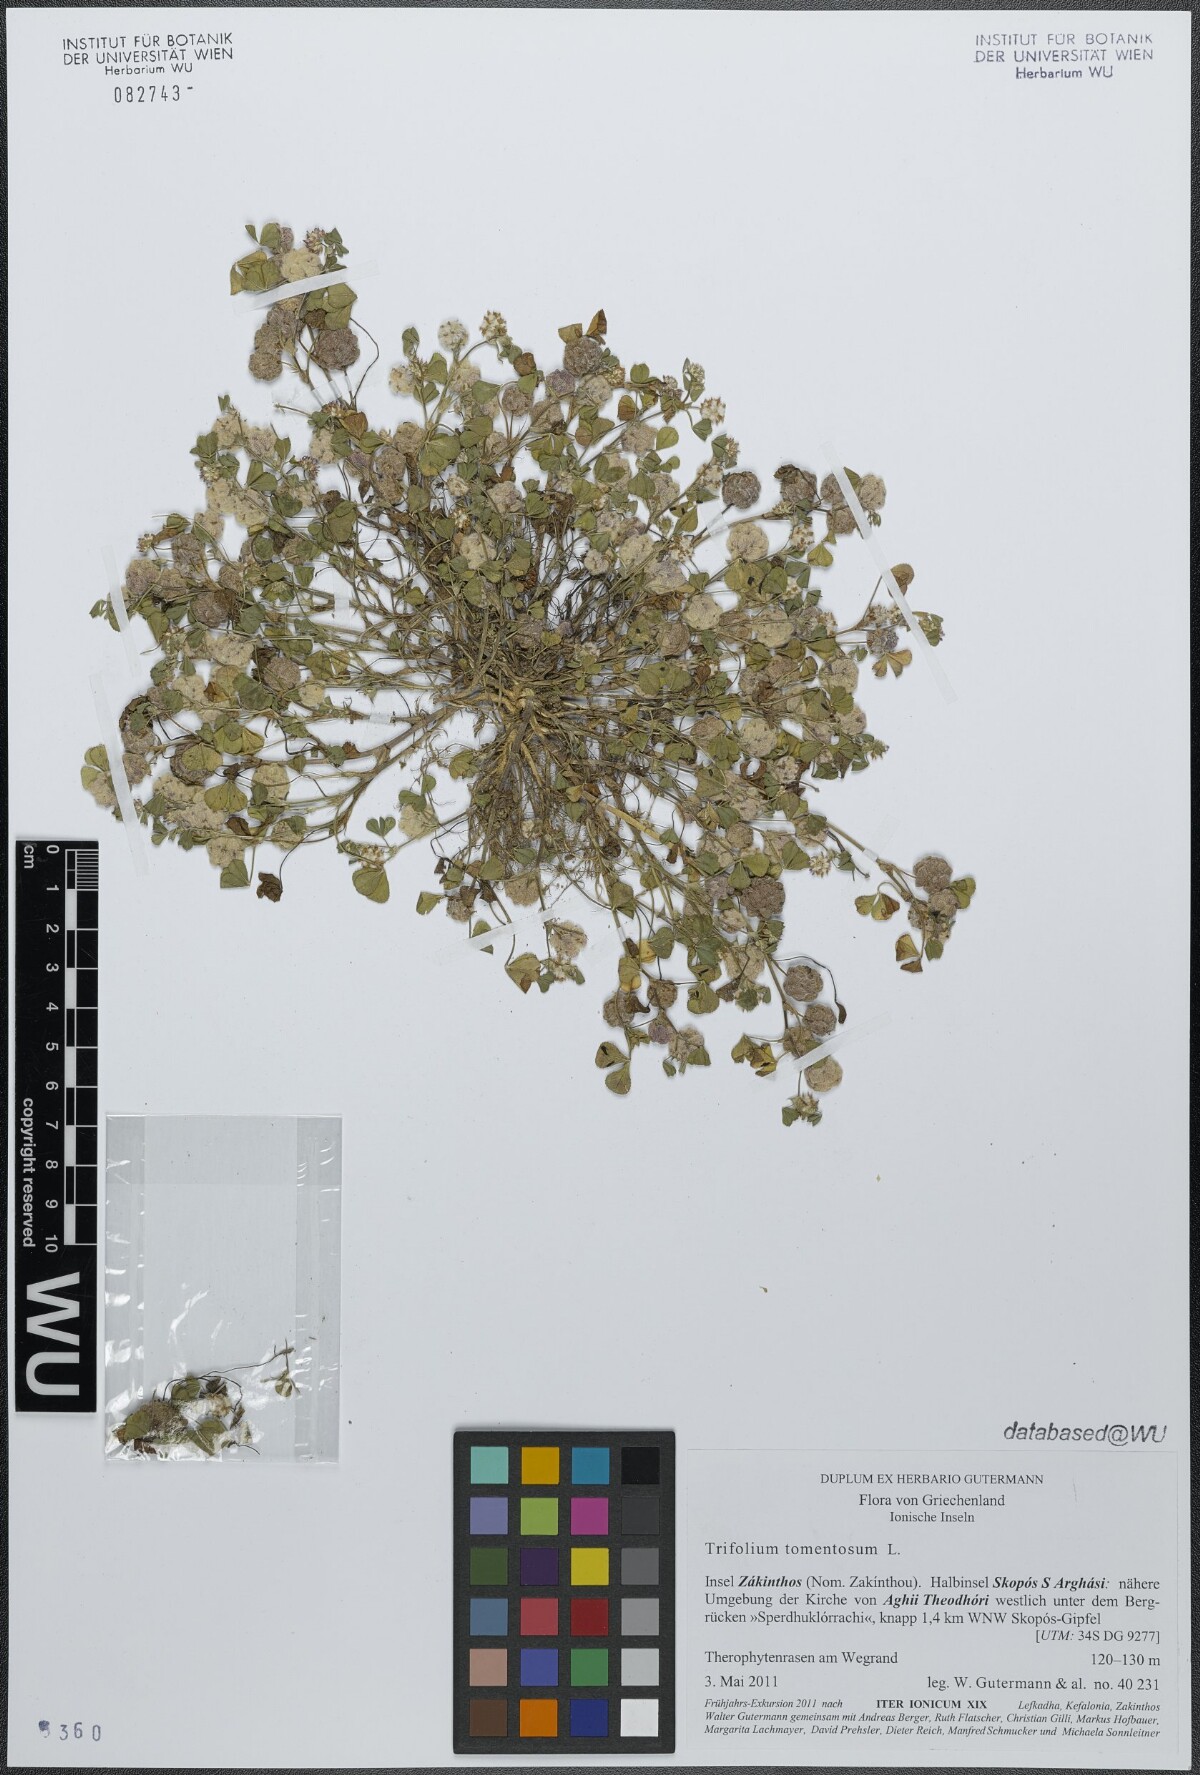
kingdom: Plantae
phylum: Tracheophyta
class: Magnoliopsida
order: Fabales
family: Fabaceae
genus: Trifolium
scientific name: Trifolium tomentosum
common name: Woolly clover
